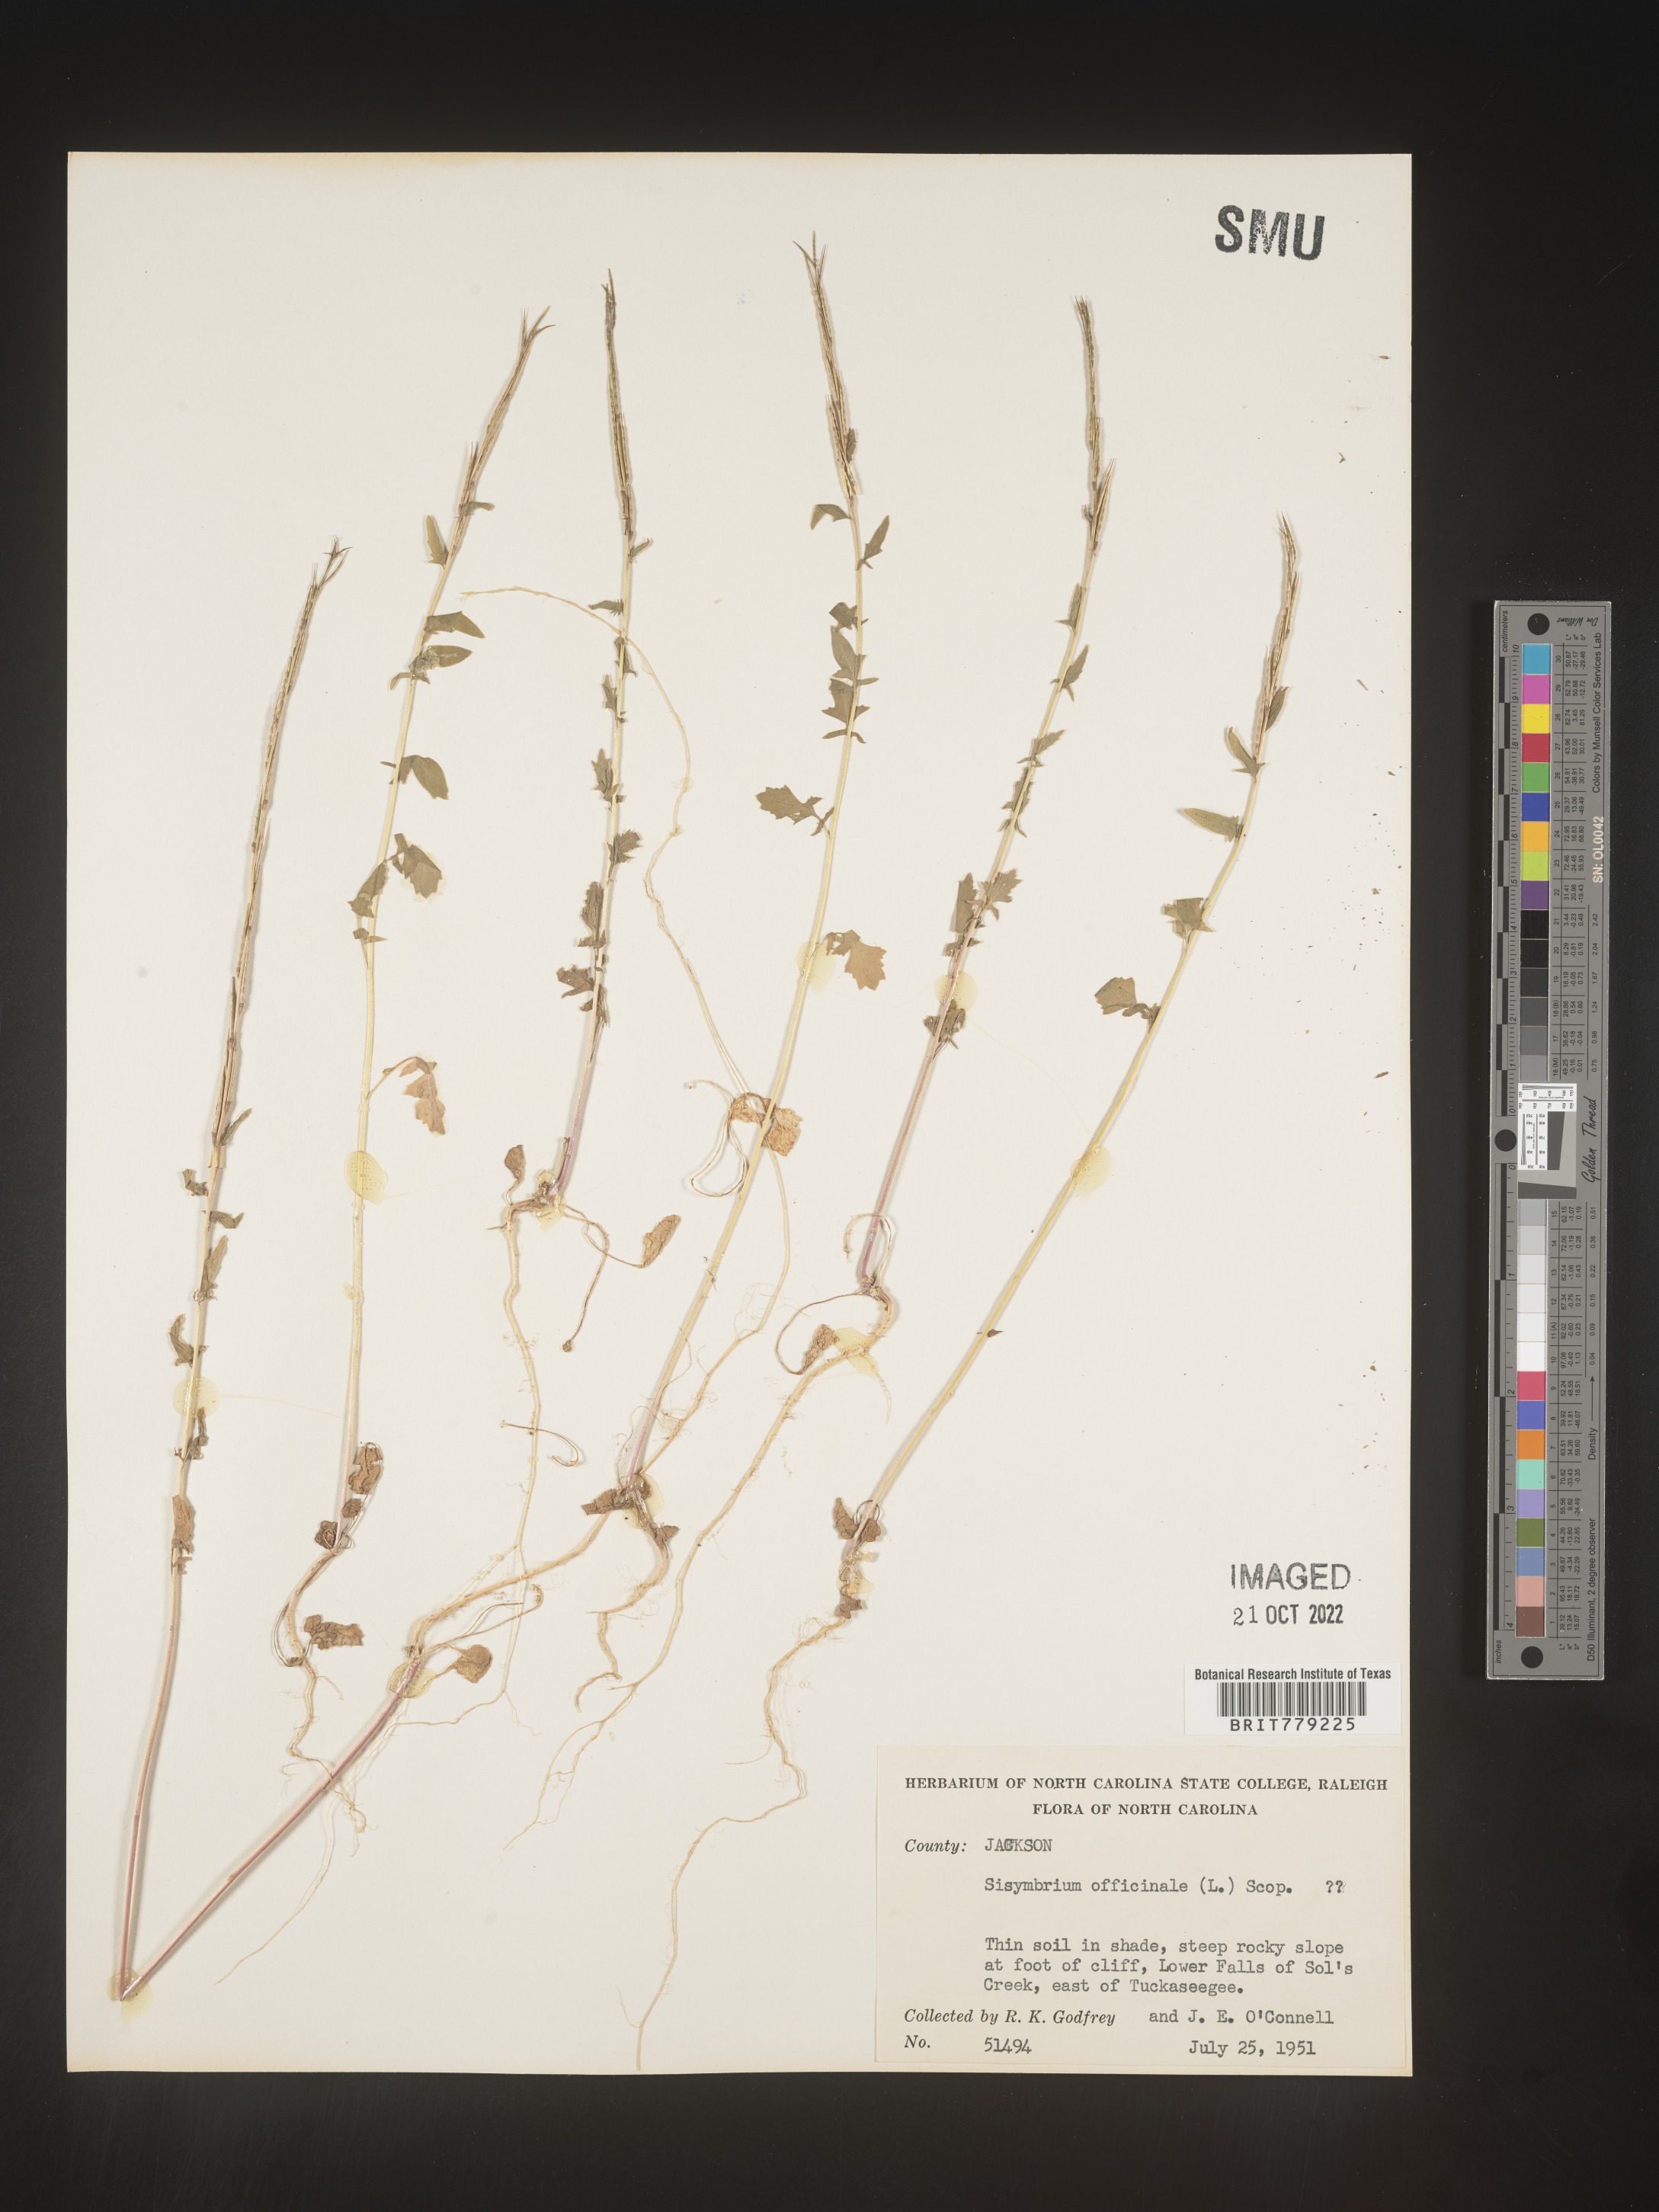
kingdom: Plantae
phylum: Tracheophyta
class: Magnoliopsida
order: Brassicales
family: Brassicaceae
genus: Sisymbrium
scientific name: Sisymbrium officinale
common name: Hedge mustard
